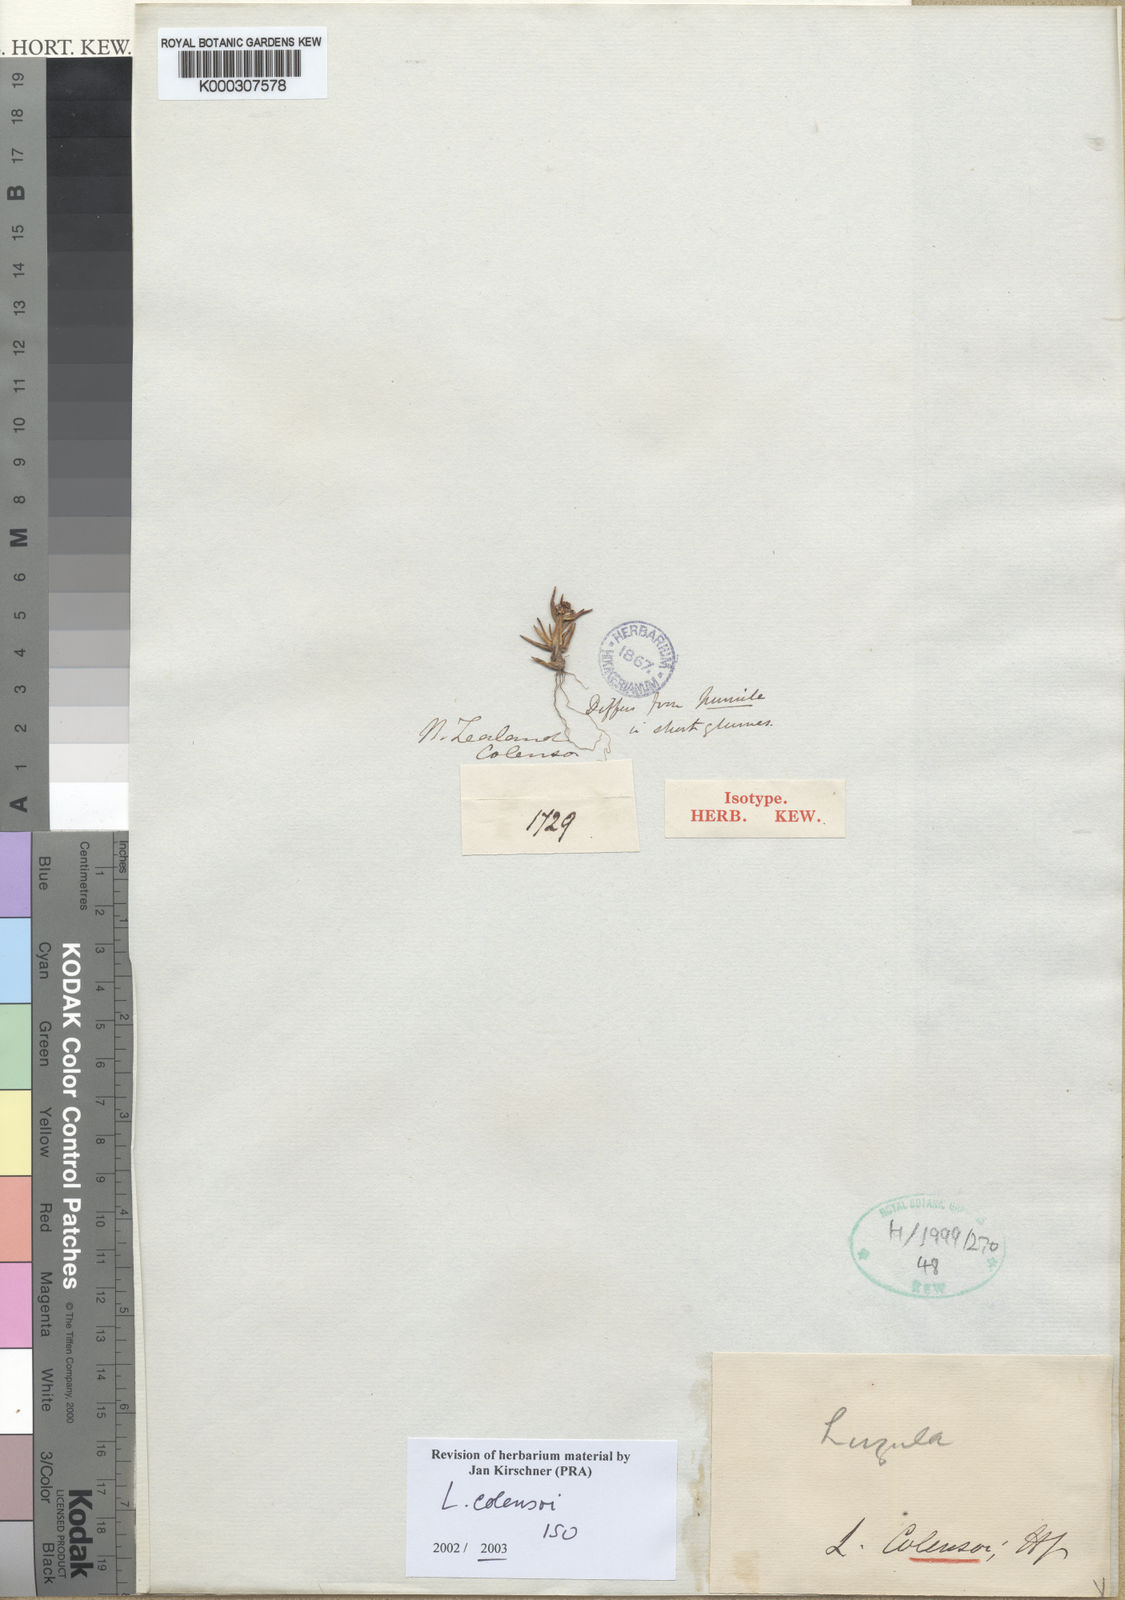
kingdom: Plantae
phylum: Tracheophyta
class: Liliopsida
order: Poales
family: Juncaceae
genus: Luzula
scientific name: Luzula colensoi
